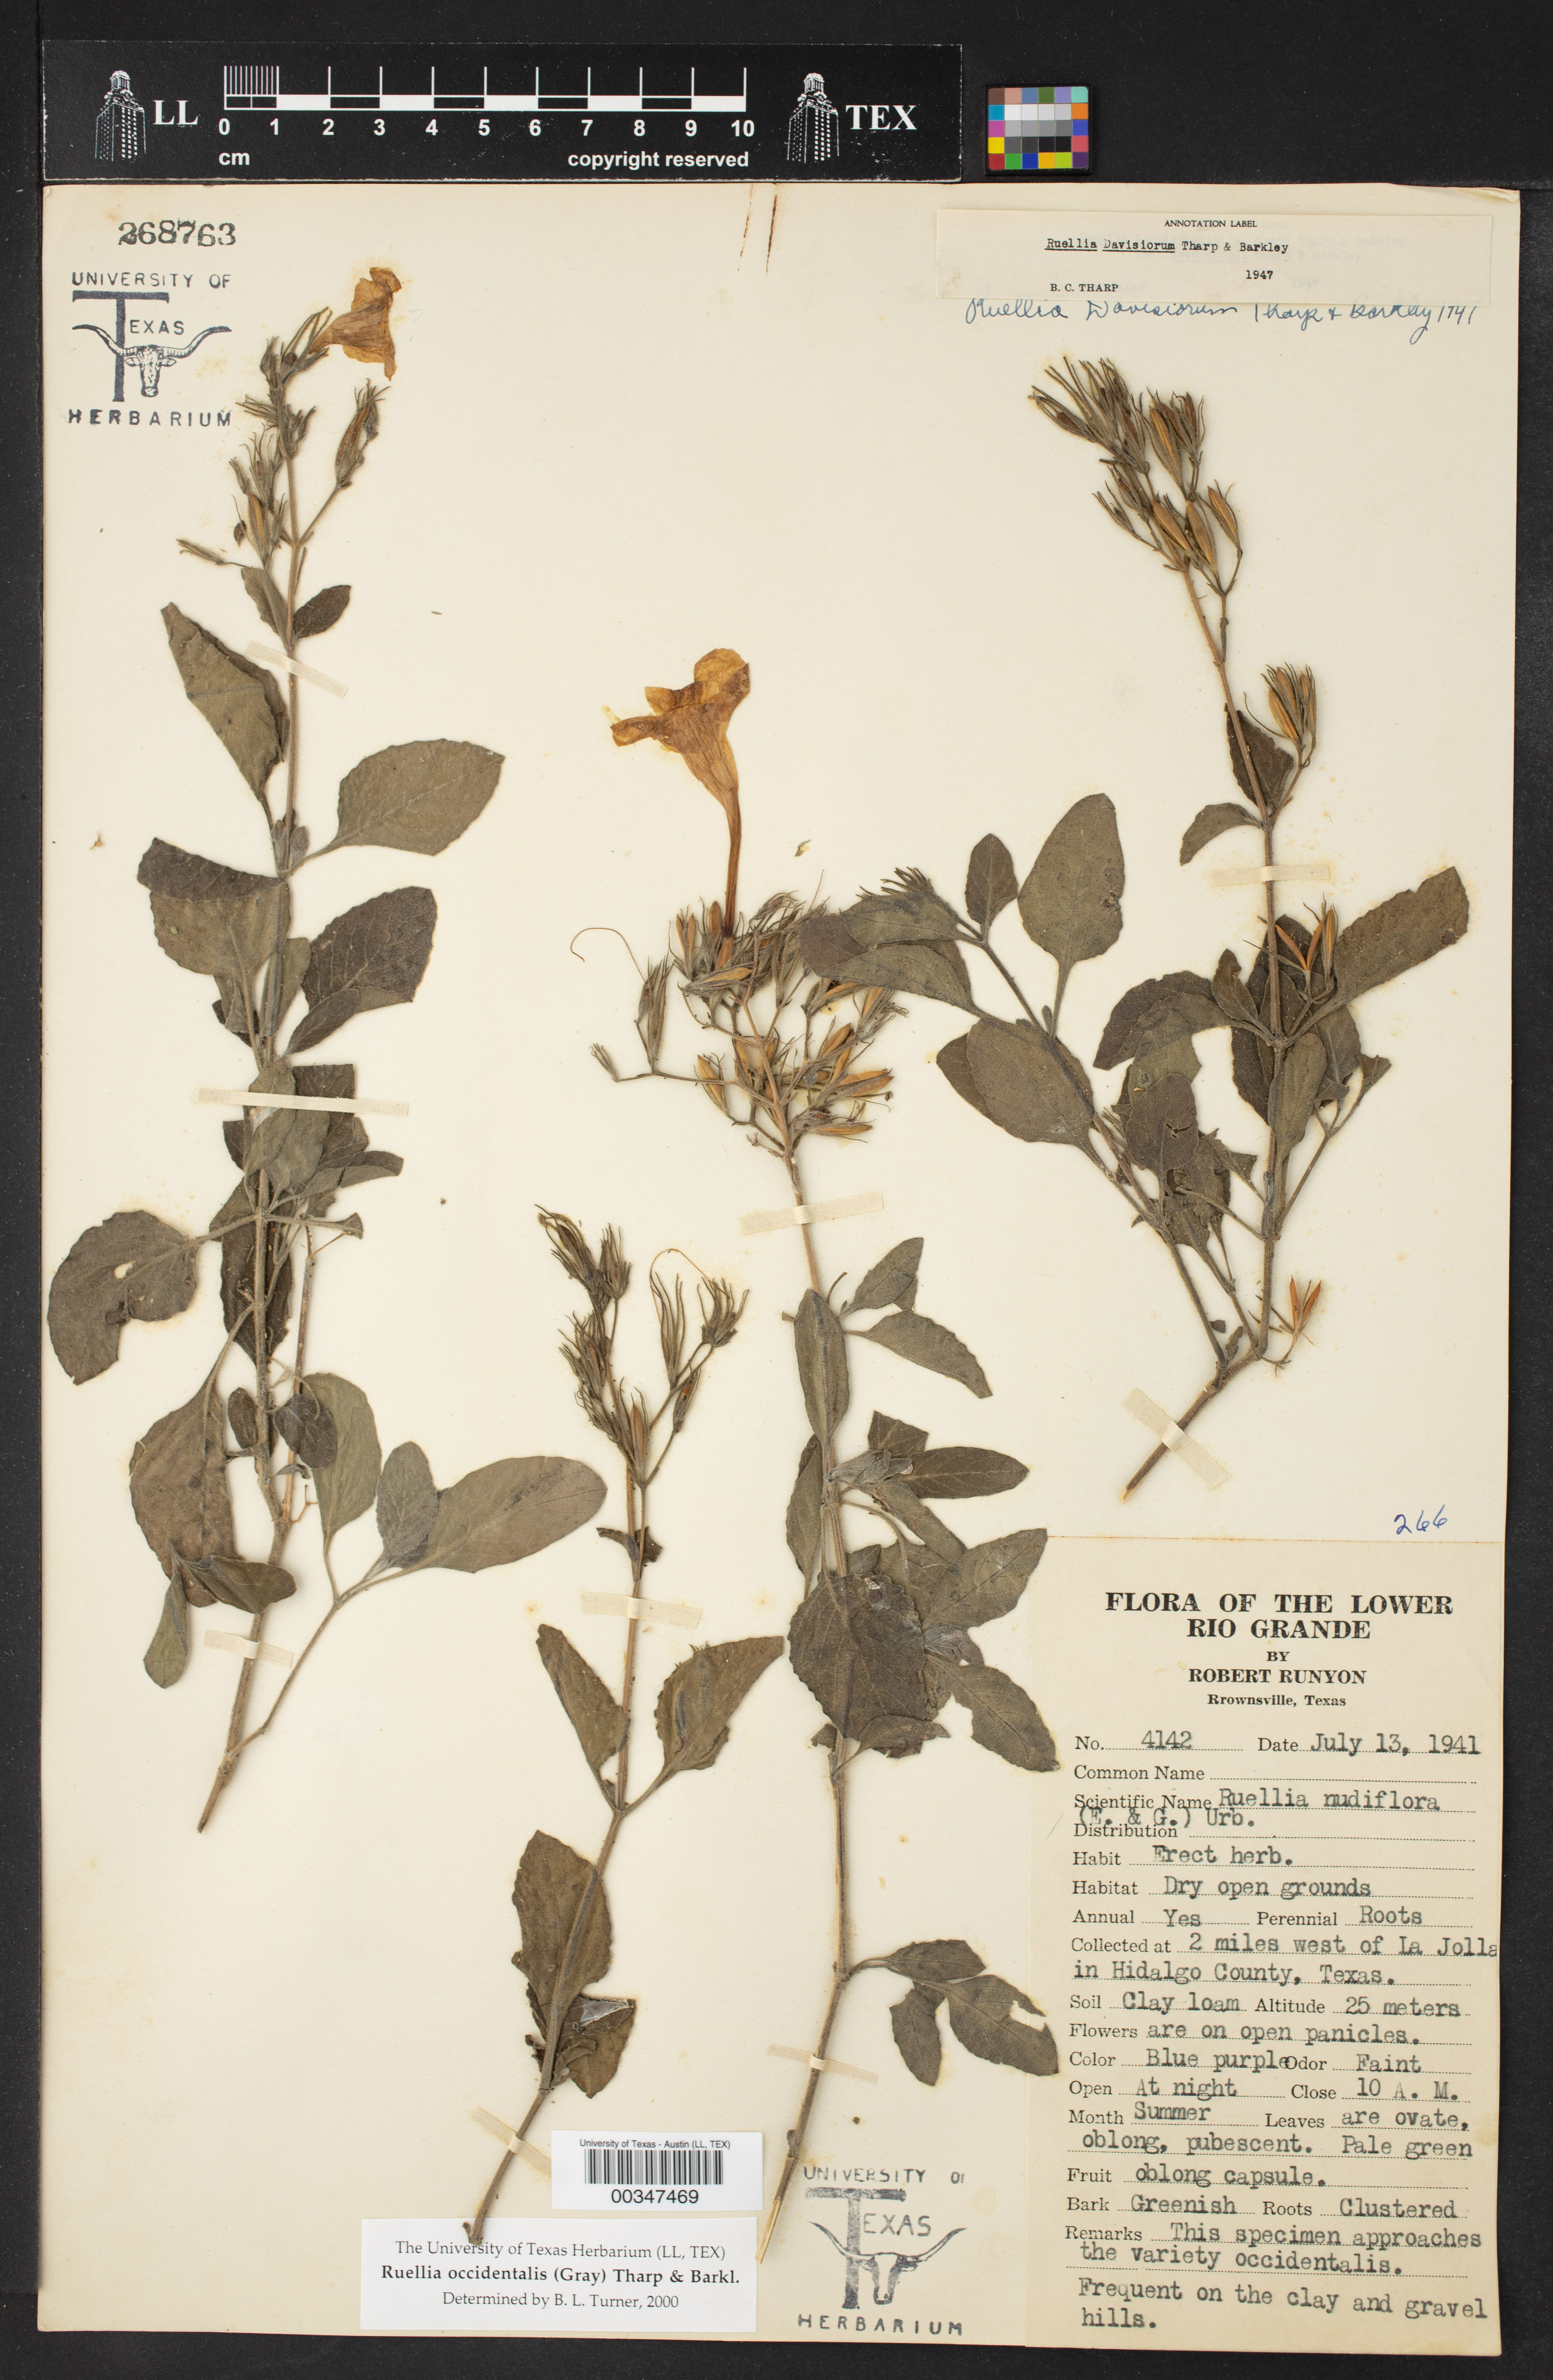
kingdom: Plantae
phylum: Tracheophyta
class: Magnoliopsida
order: Lamiales
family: Acanthaceae
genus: Ruellia
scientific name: Ruellia ciliatiflora
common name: Hairyflower wild petunia
